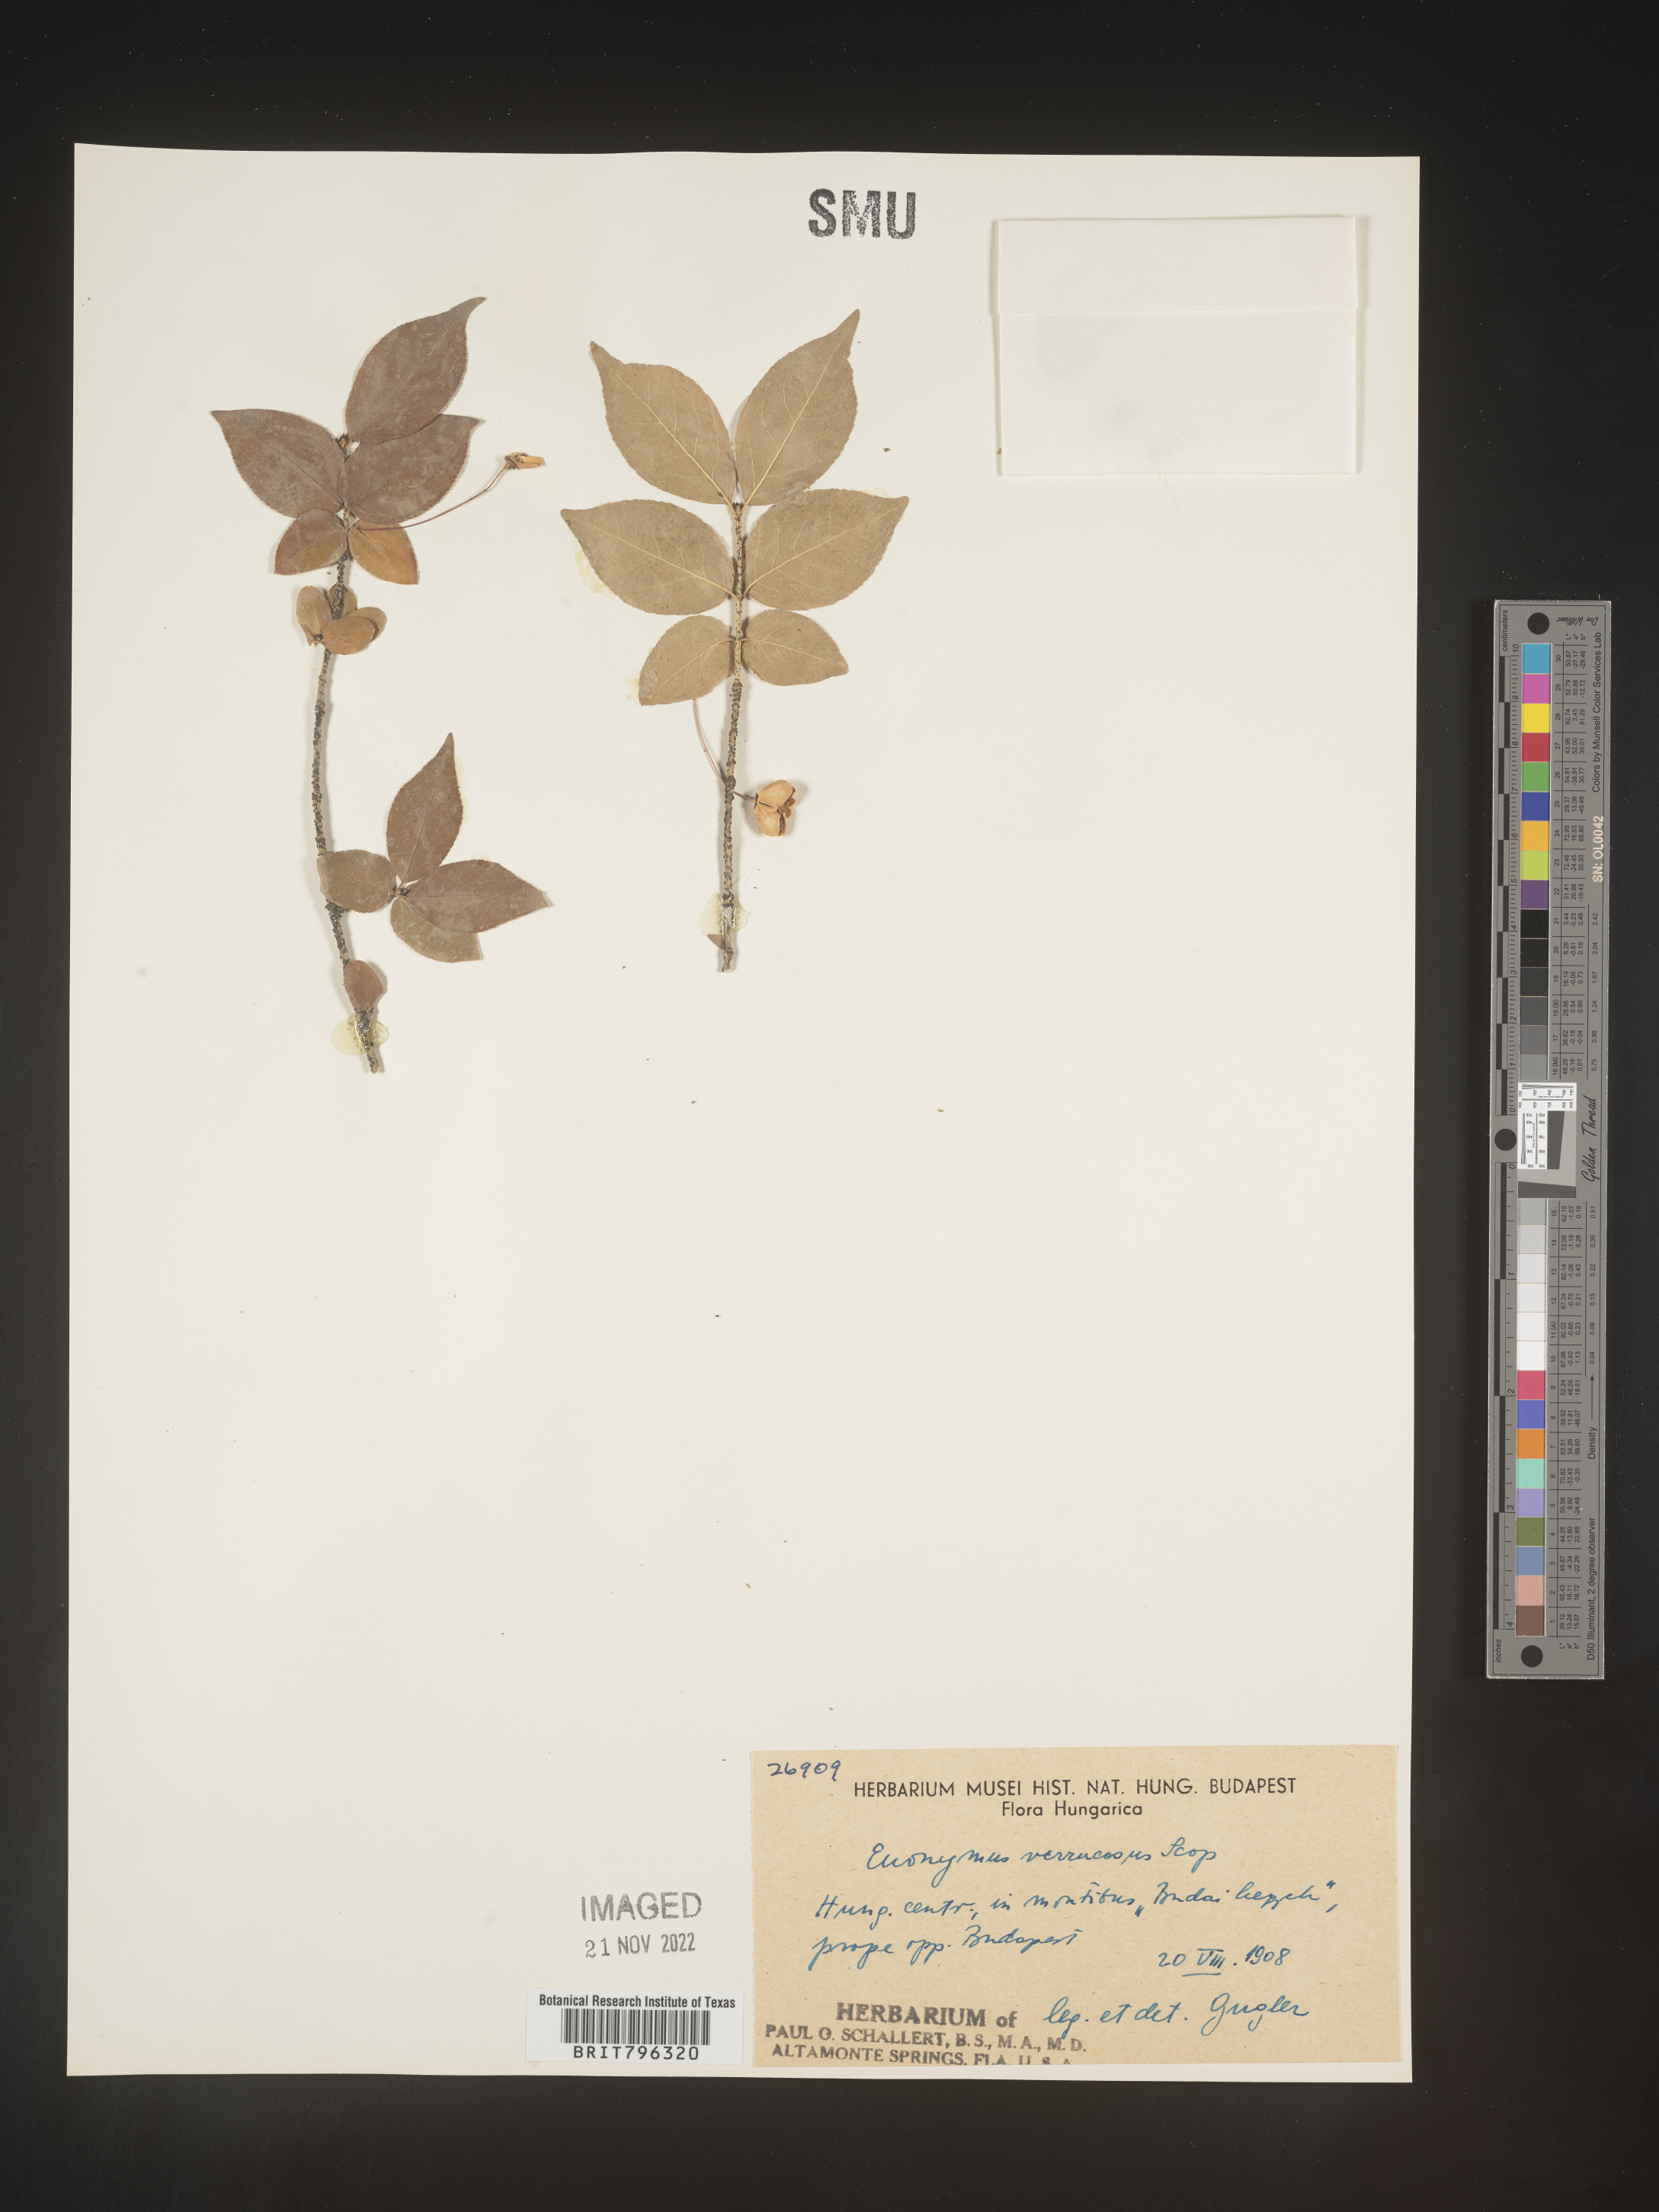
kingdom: Plantae
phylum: Tracheophyta
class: Magnoliopsida
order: Celastrales
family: Celastraceae
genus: Euonymus
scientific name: Euonymus
